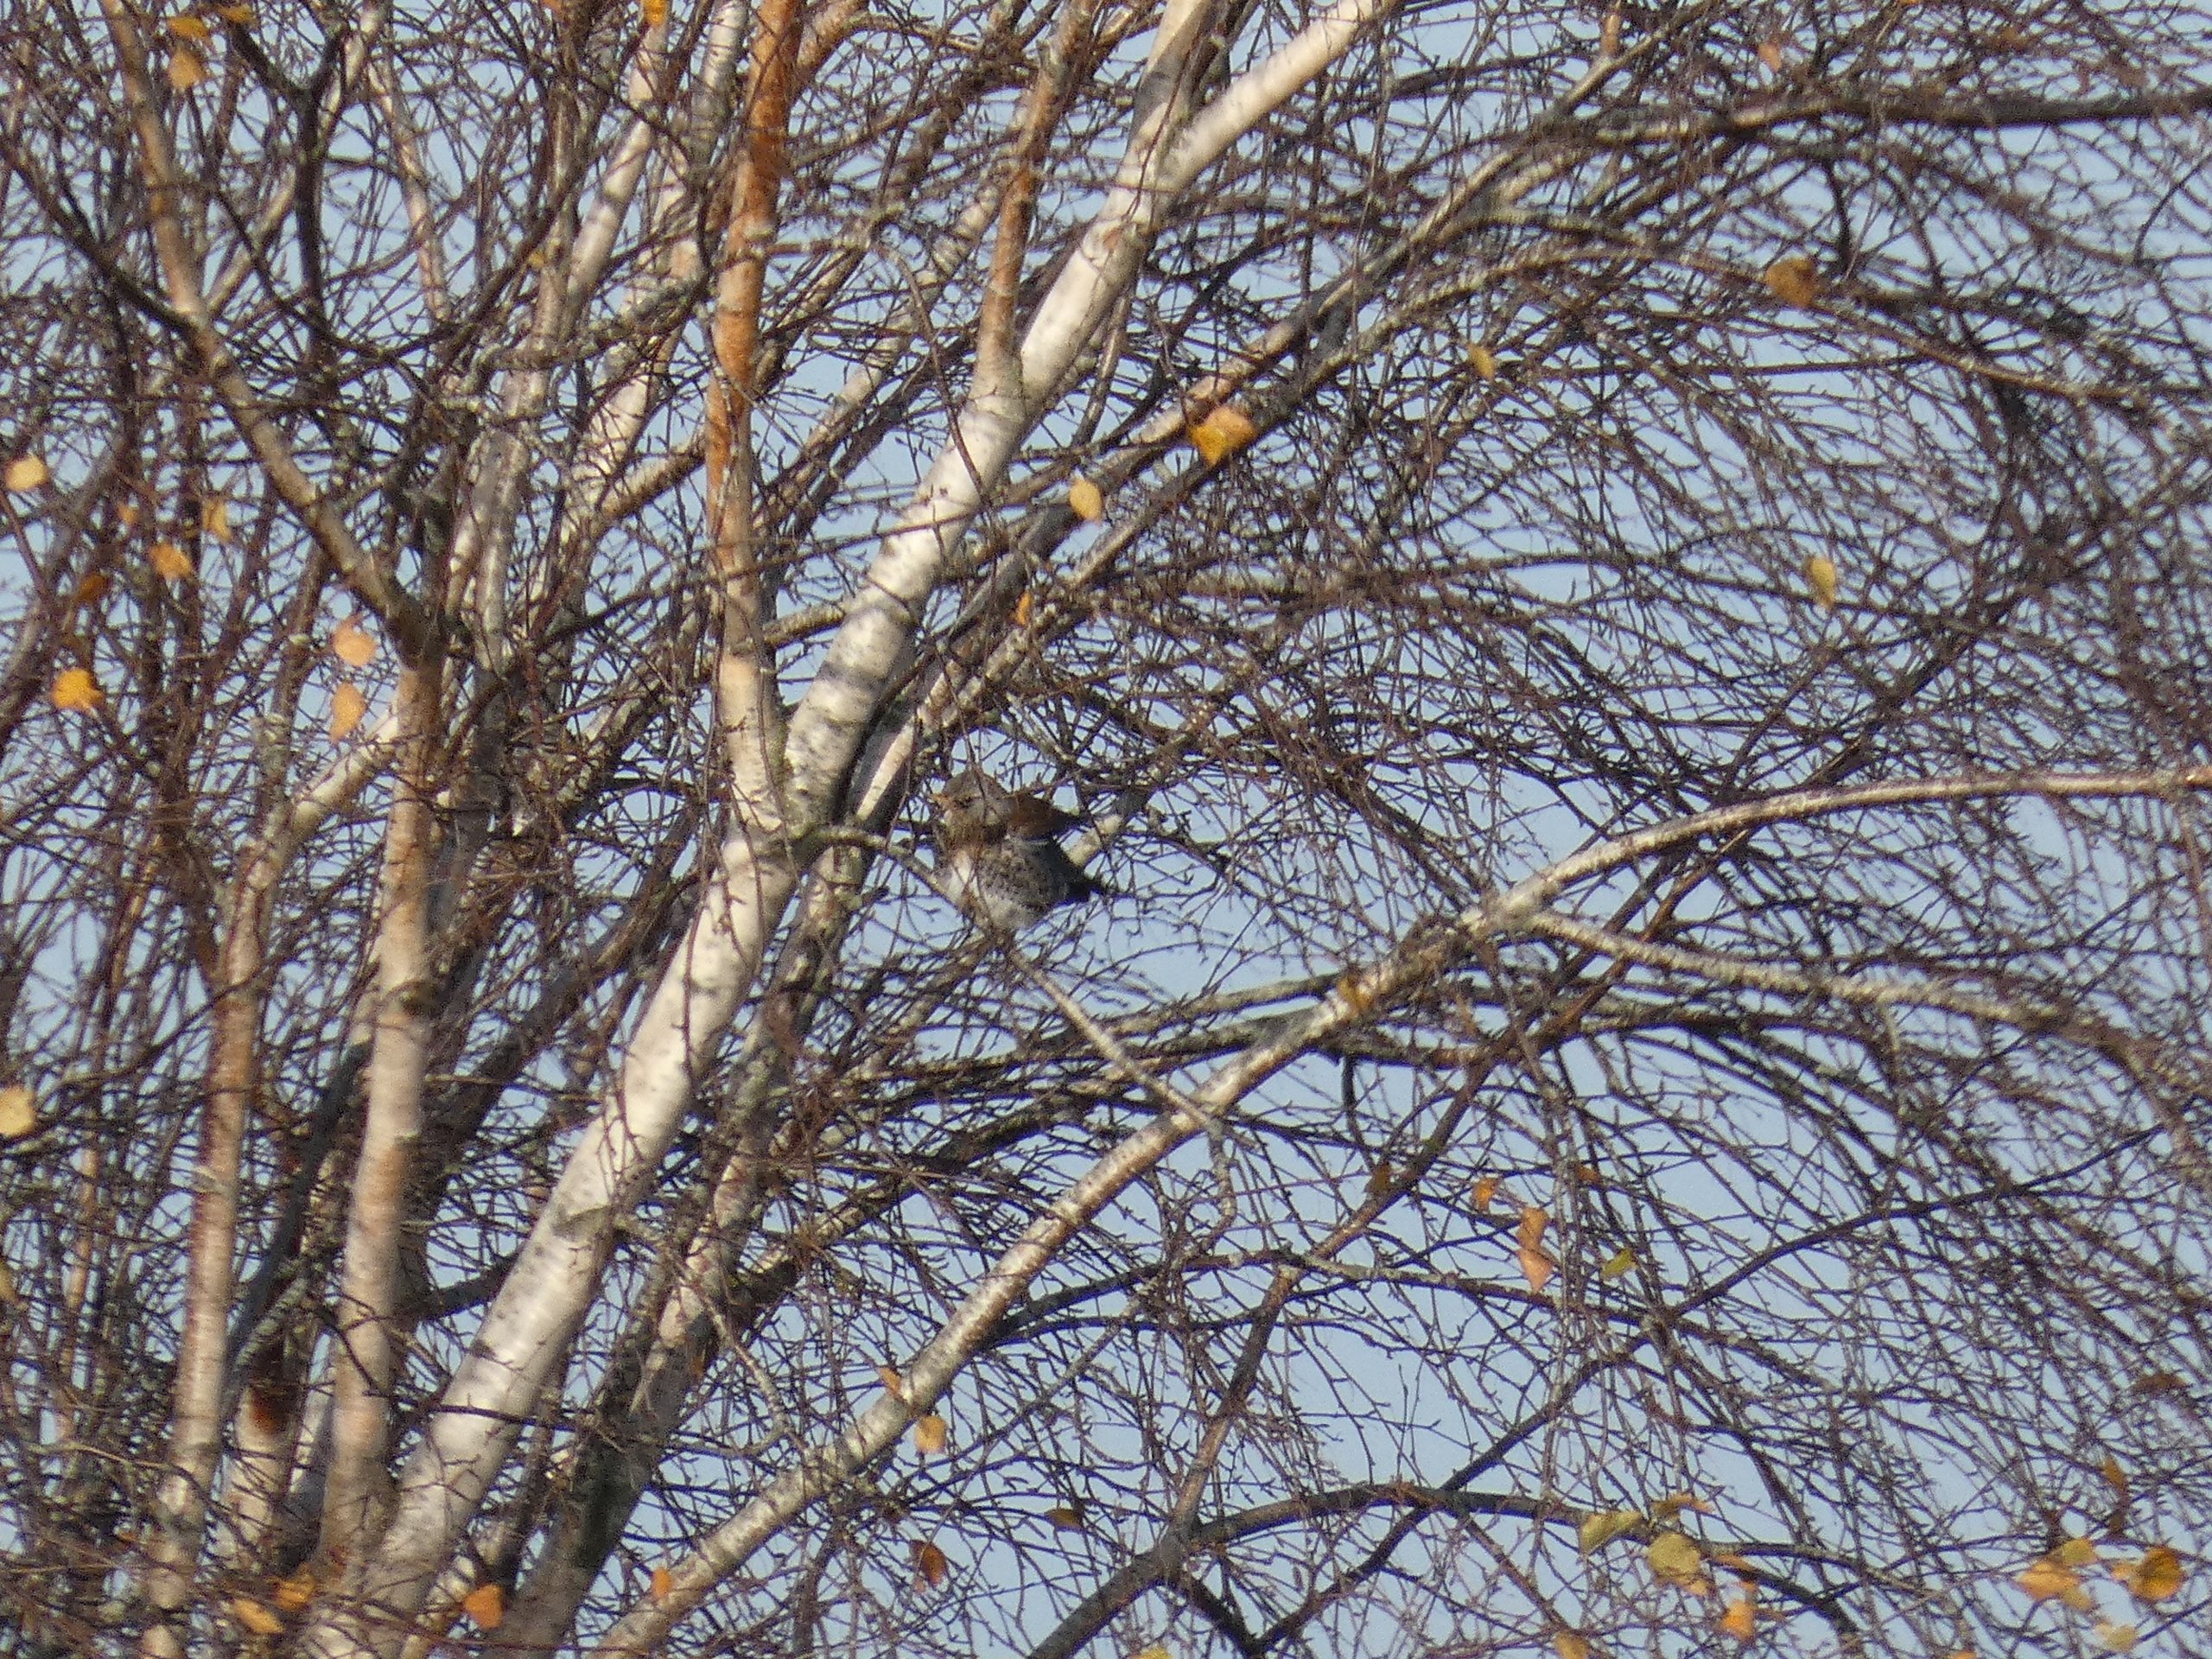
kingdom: Animalia
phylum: Chordata
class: Aves
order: Passeriformes
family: Turdidae
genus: Turdus
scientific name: Turdus pilaris
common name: Sjagger
